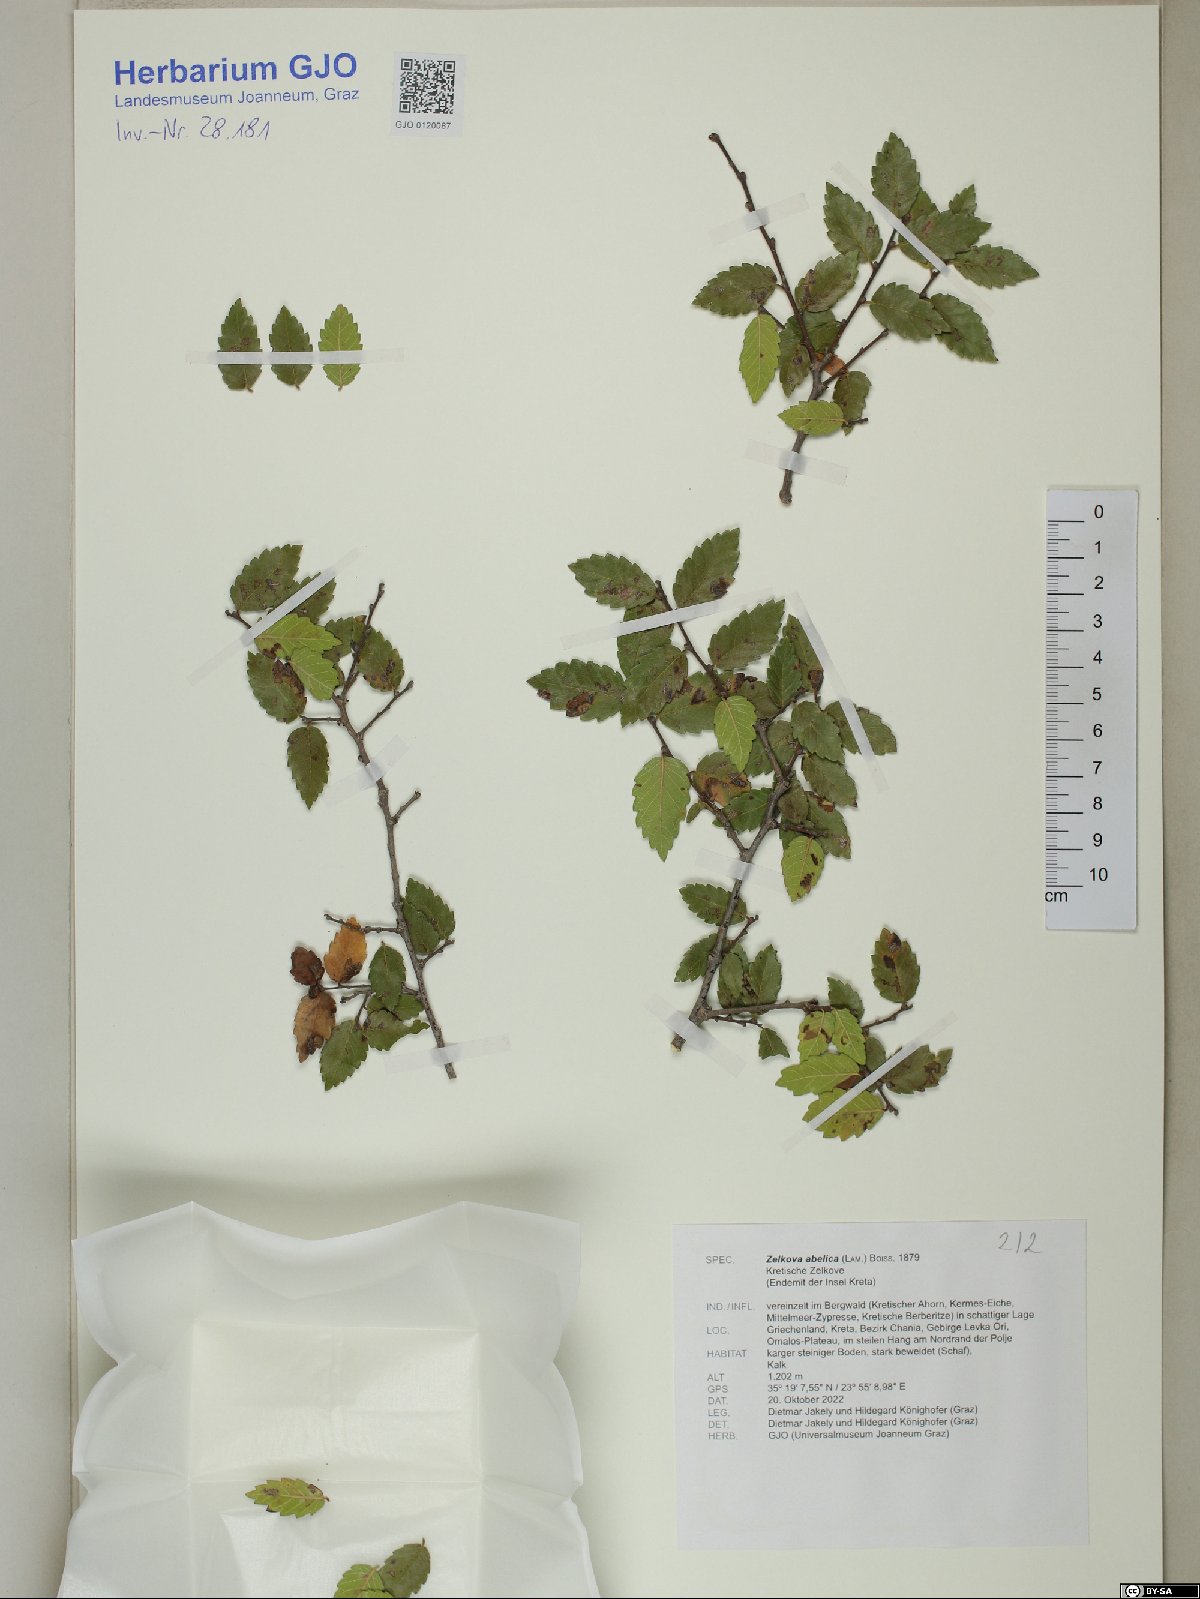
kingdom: Plantae
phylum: Tracheophyta
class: Magnoliopsida
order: Rosales
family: Ulmaceae
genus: Zelkova
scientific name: Zelkova abelicea
